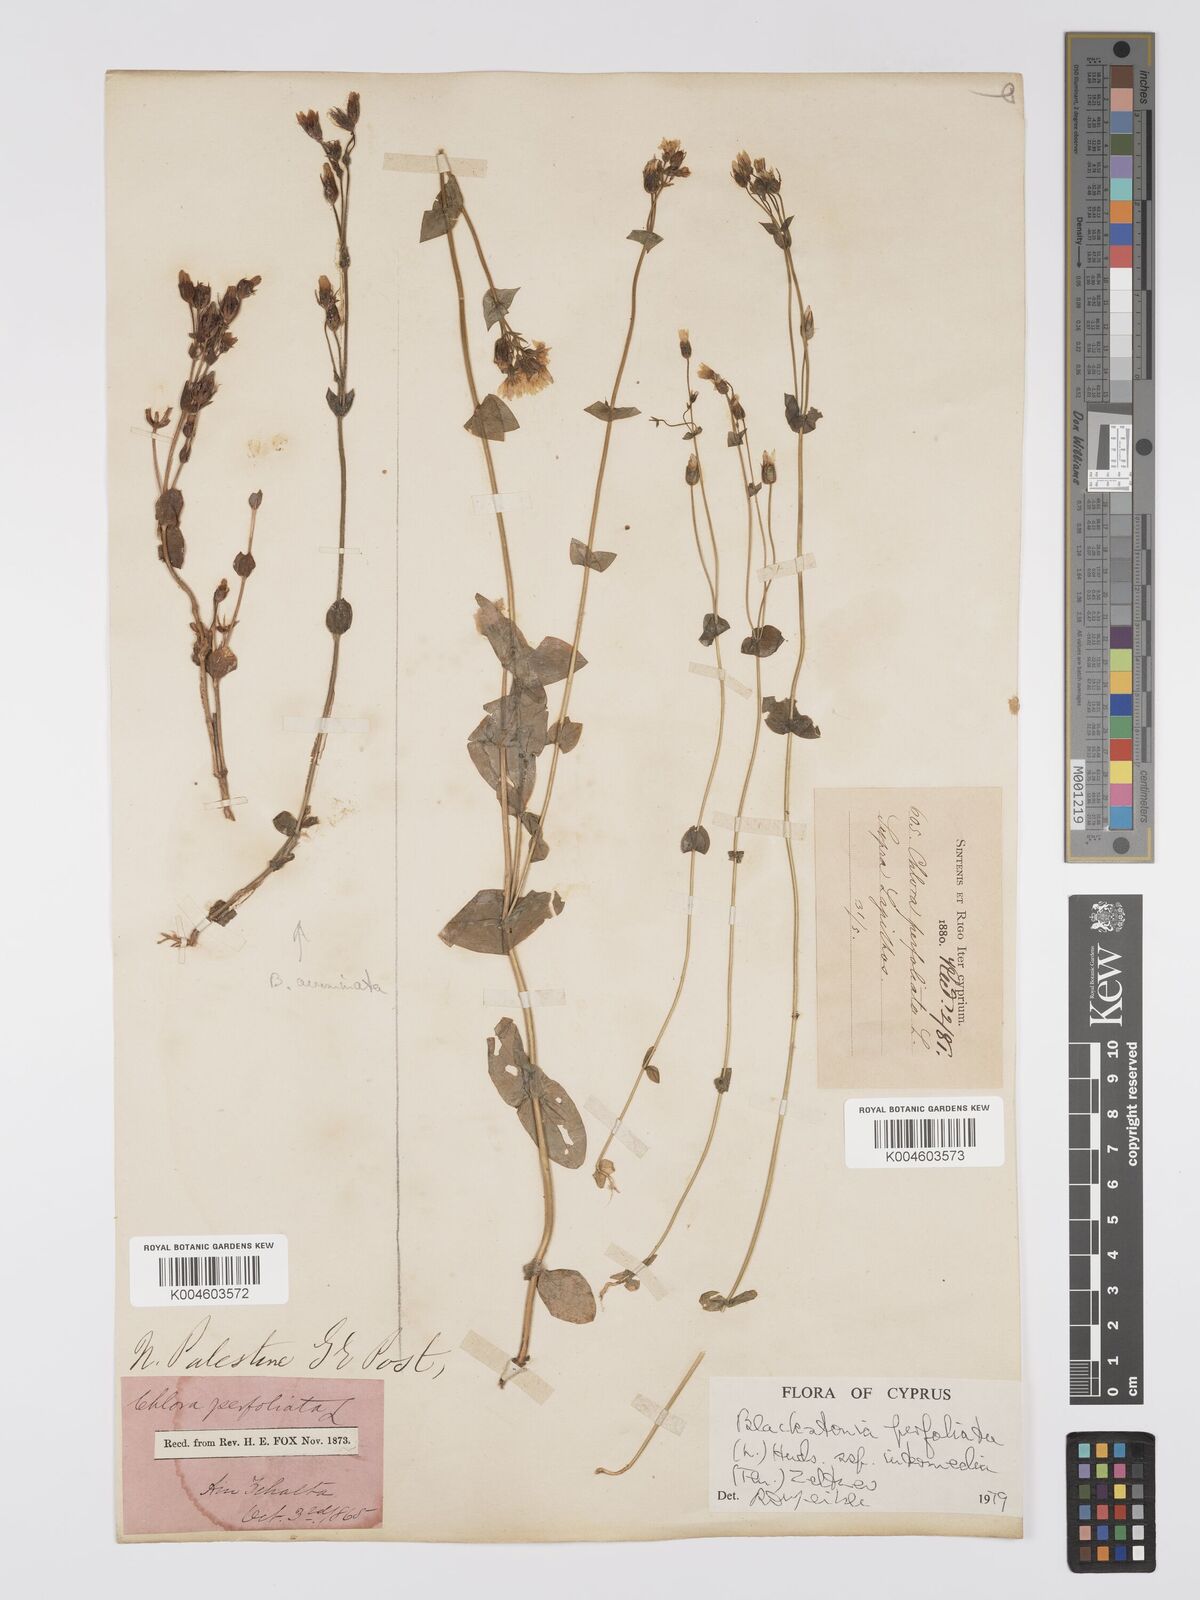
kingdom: Plantae
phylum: Tracheophyta
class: Magnoliopsida
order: Gentianales
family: Gentianaceae
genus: Blackstonia
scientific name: Blackstonia perfoliata
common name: Yellow-wort
